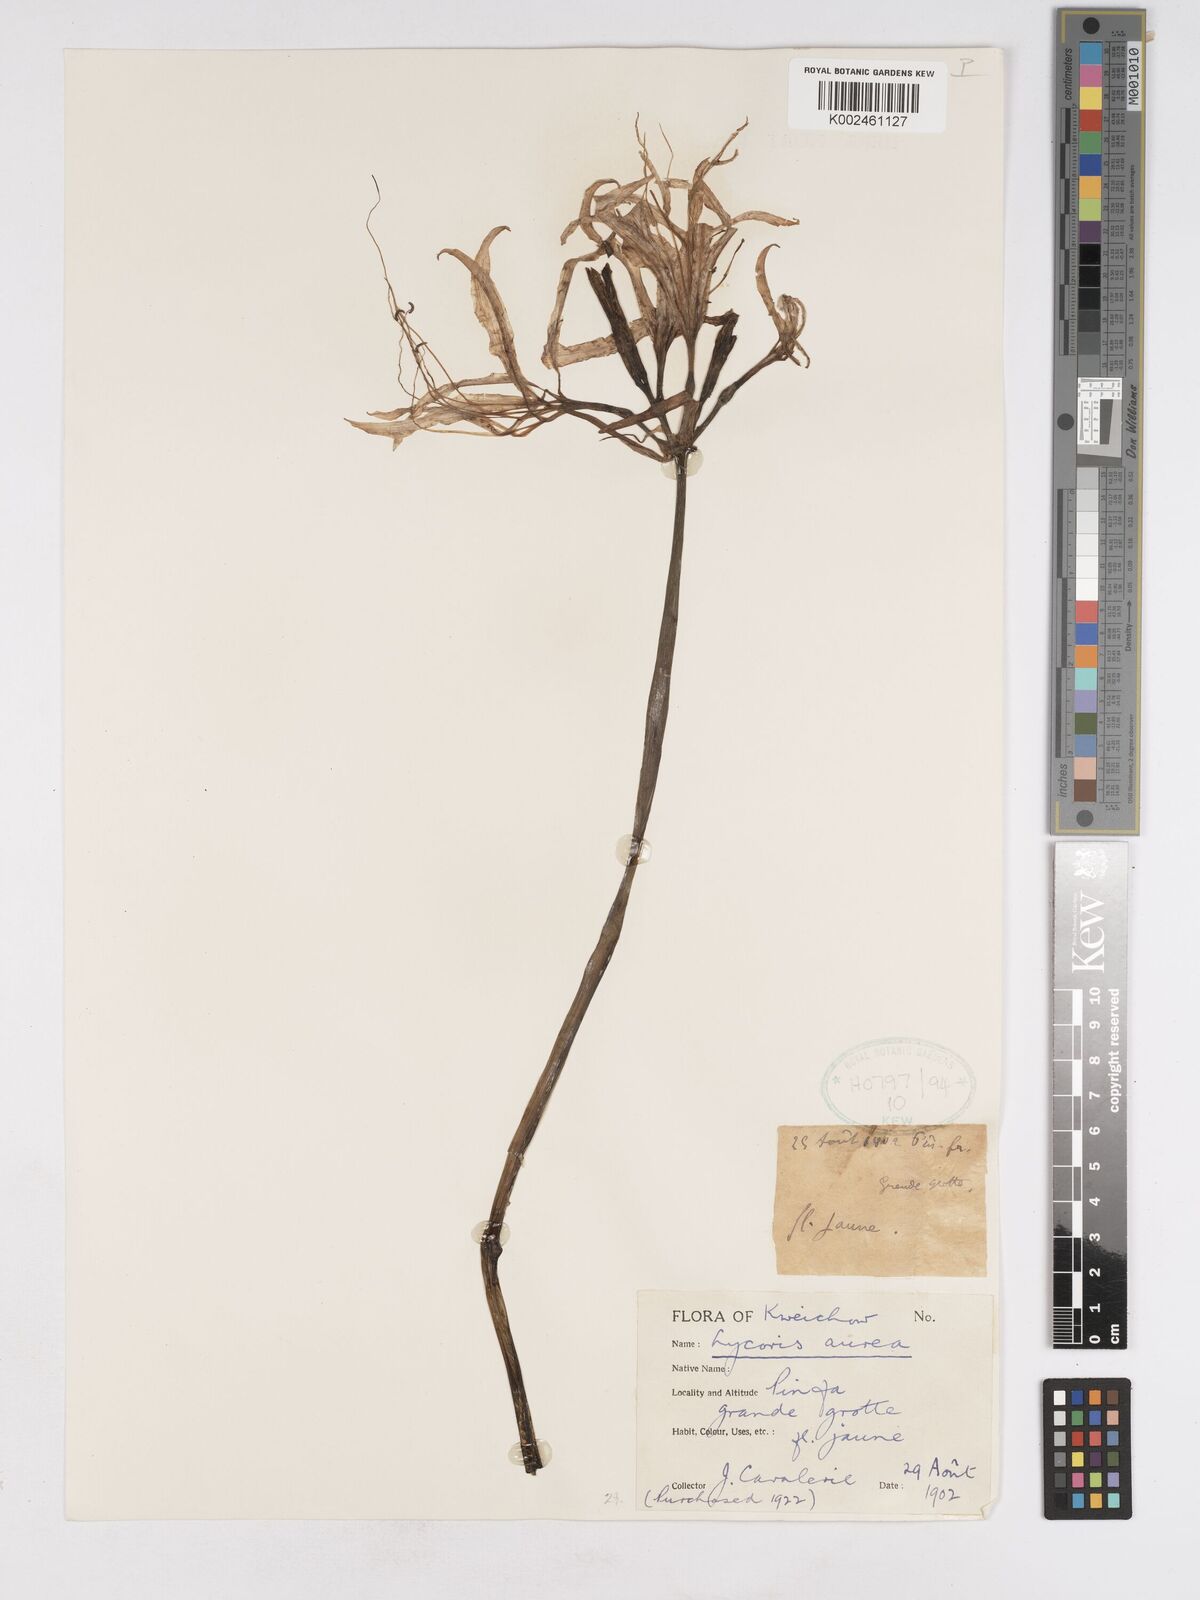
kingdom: Plantae
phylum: Tracheophyta
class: Liliopsida
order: Asparagales
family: Amaryllidaceae
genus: Lycoris
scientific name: Lycoris
